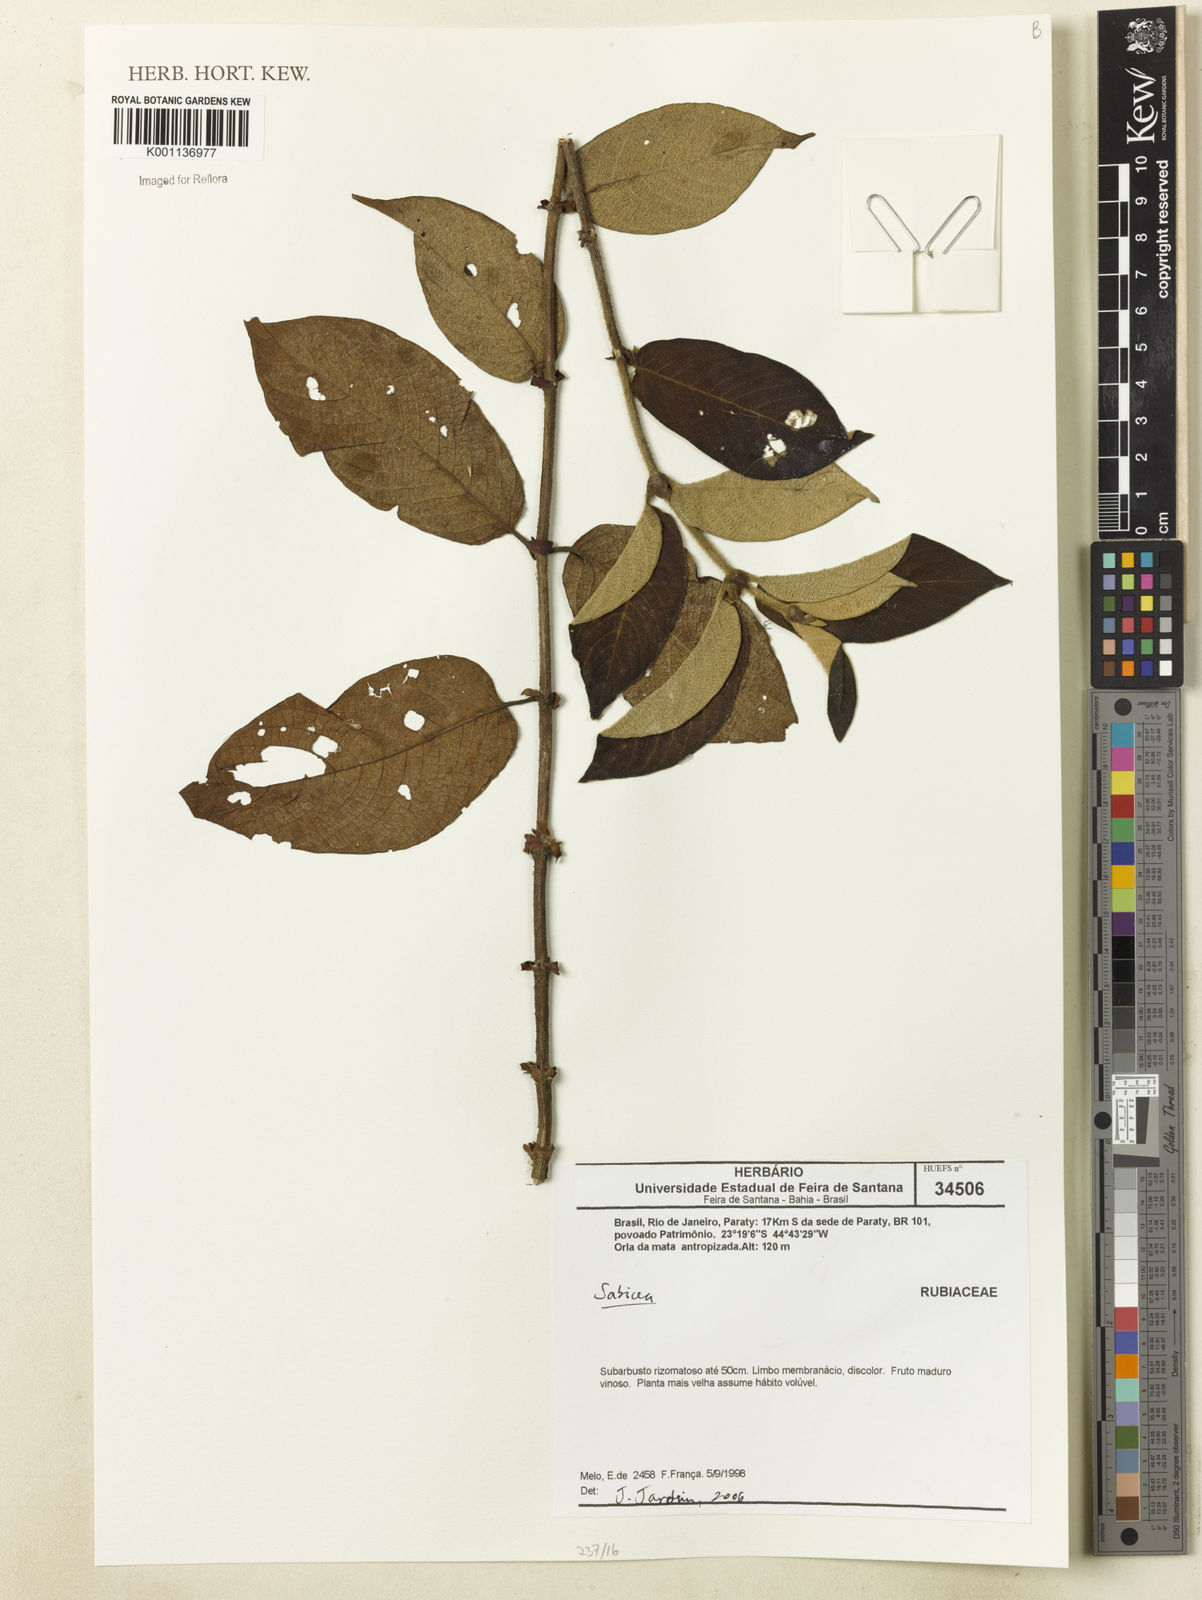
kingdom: Plantae
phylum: Tracheophyta
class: Magnoliopsida
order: Gentianales
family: Rubiaceae
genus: Sabicea
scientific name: Sabicea
